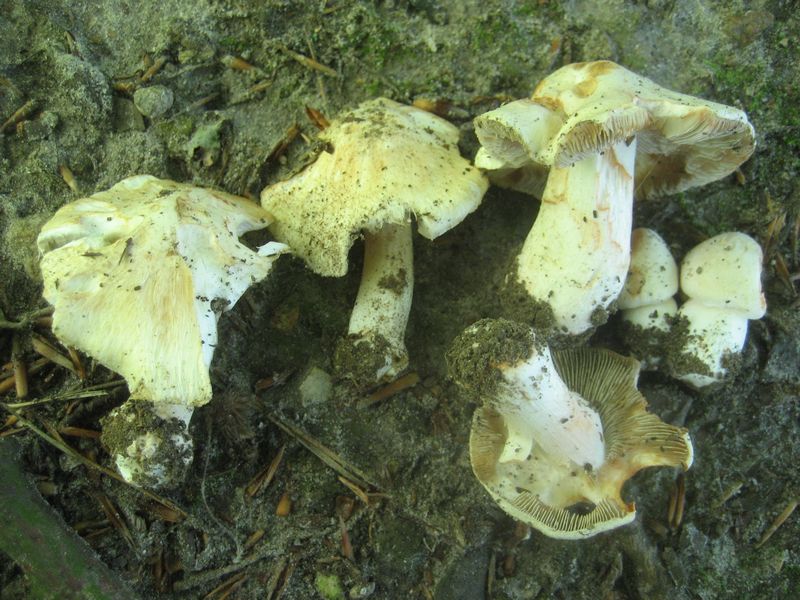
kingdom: Fungi
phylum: Basidiomycota
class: Agaricomycetes
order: Agaricales
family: Inocybaceae
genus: Inosperma
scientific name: Inosperma erubescens
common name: giftig trævlhat
